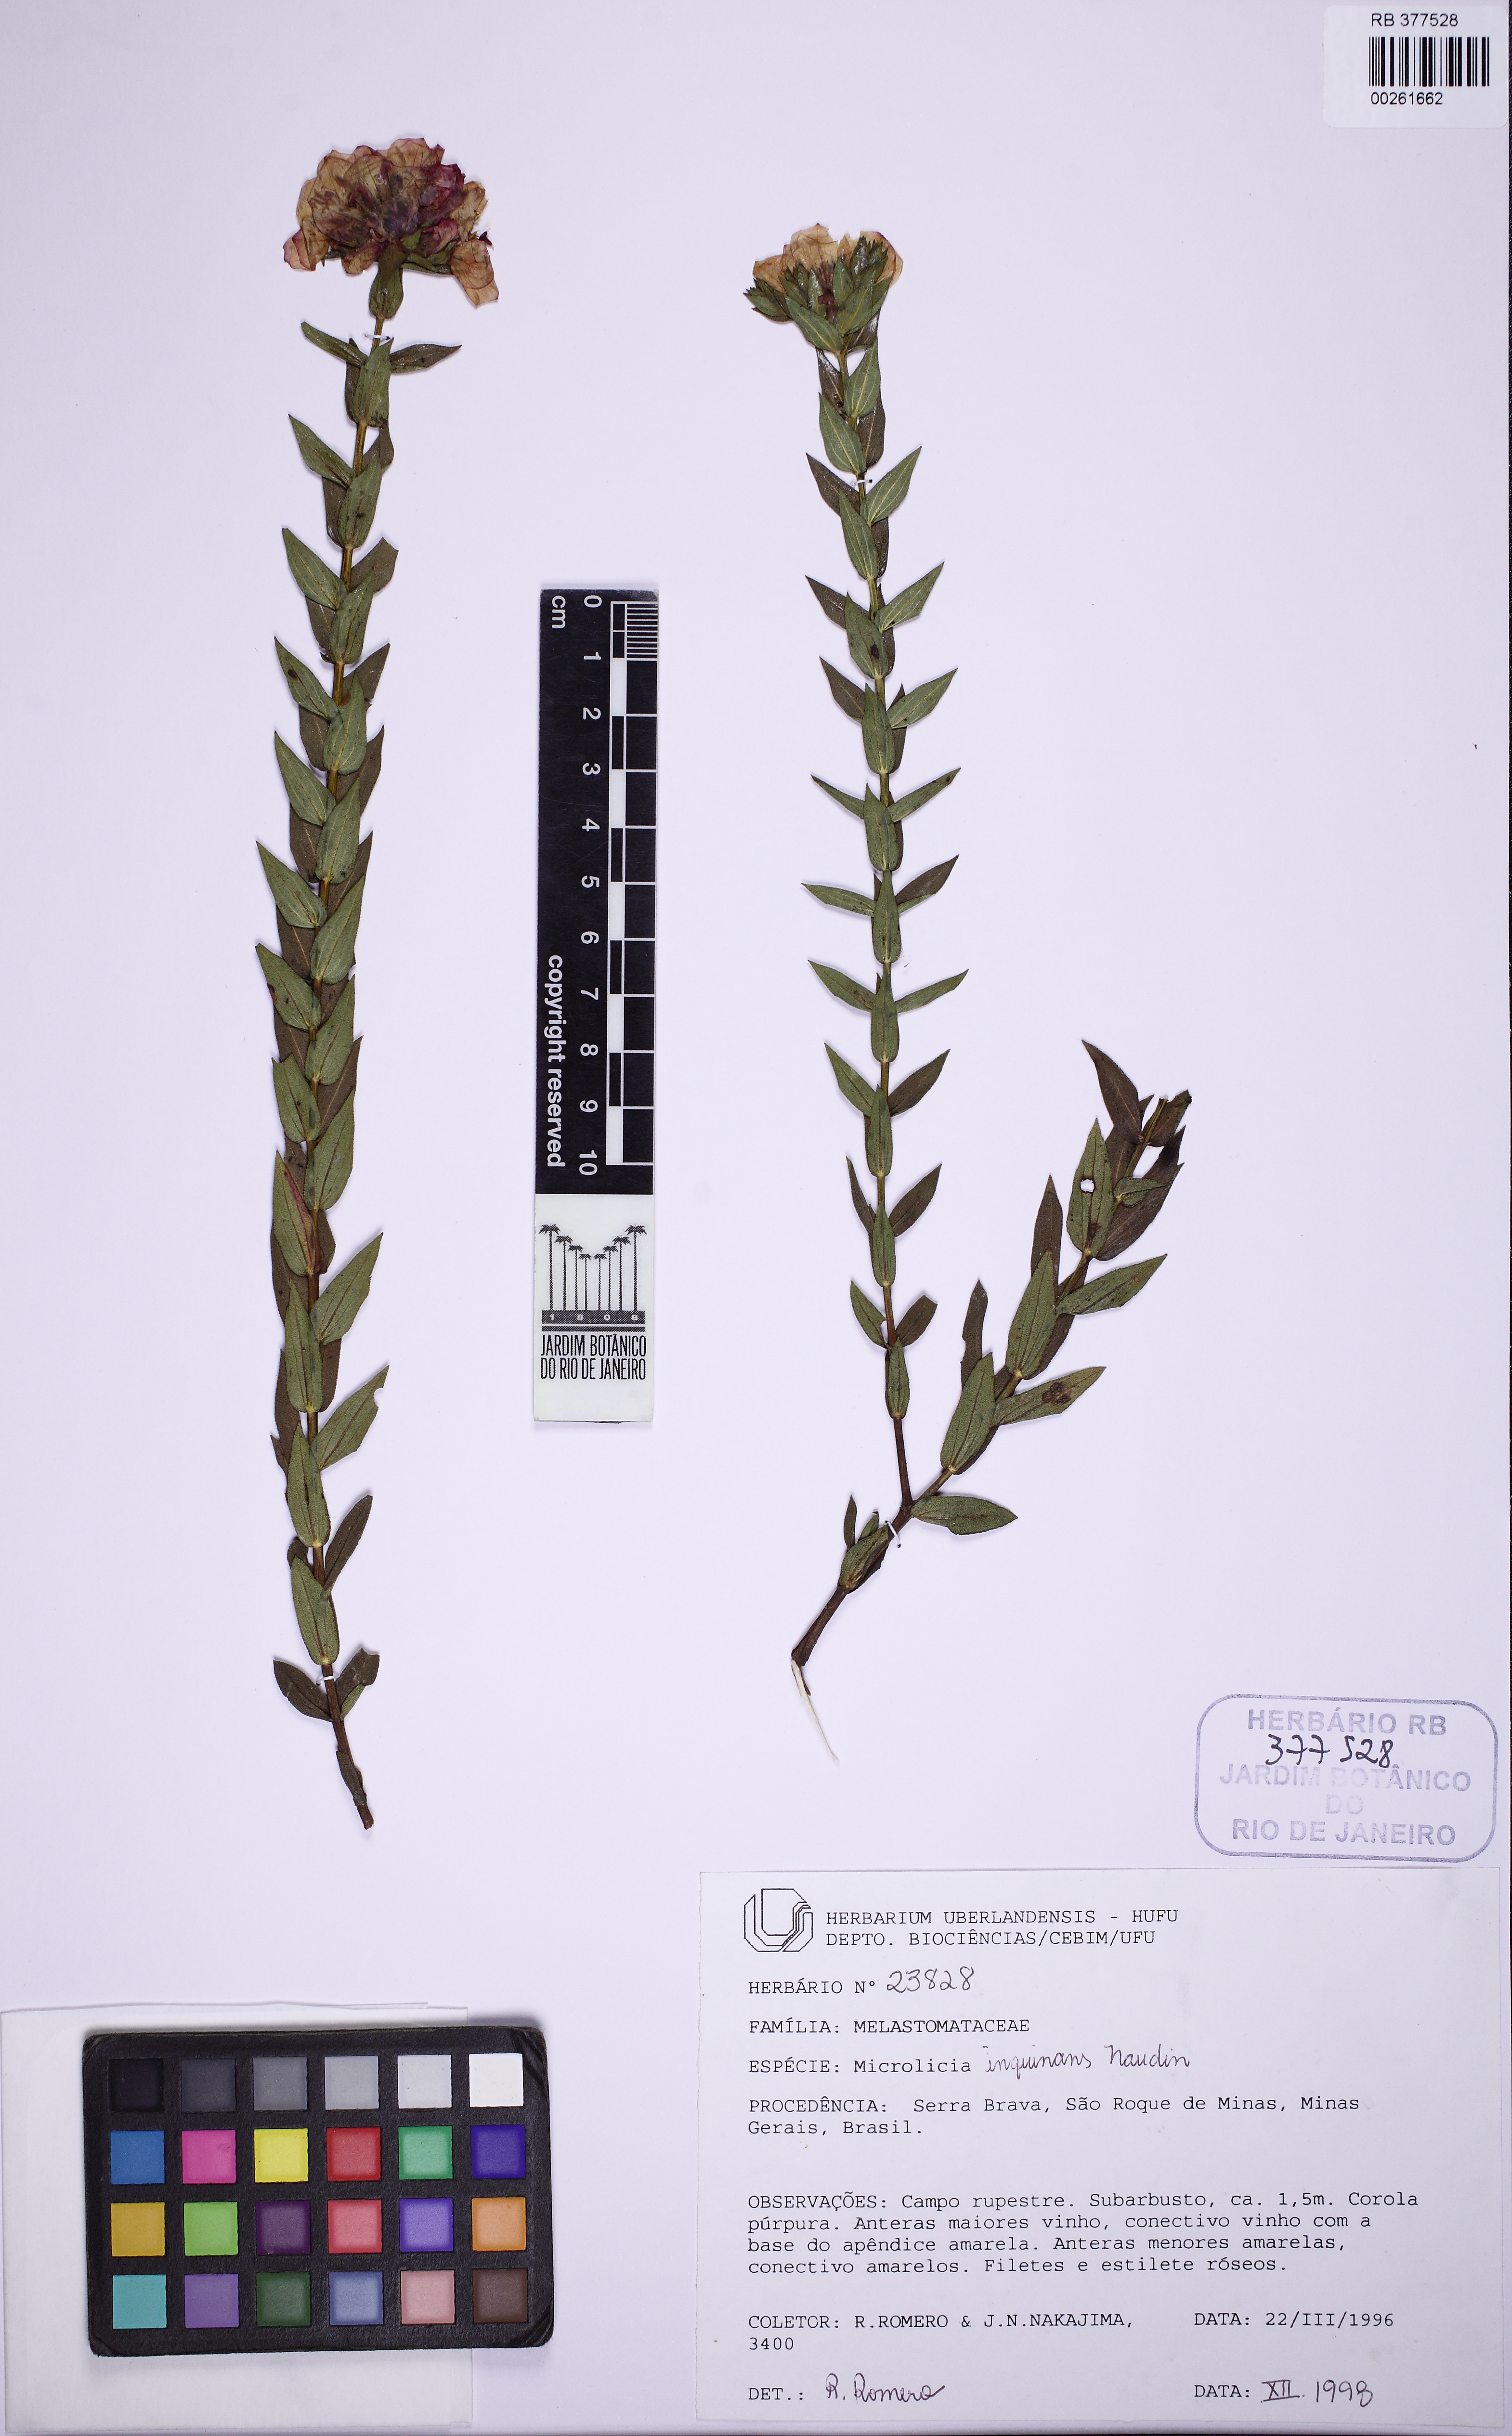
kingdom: Plantae
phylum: Tracheophyta
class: Magnoliopsida
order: Myrtales
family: Melastomataceae
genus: Microlicia
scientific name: Microlicia inquinans
